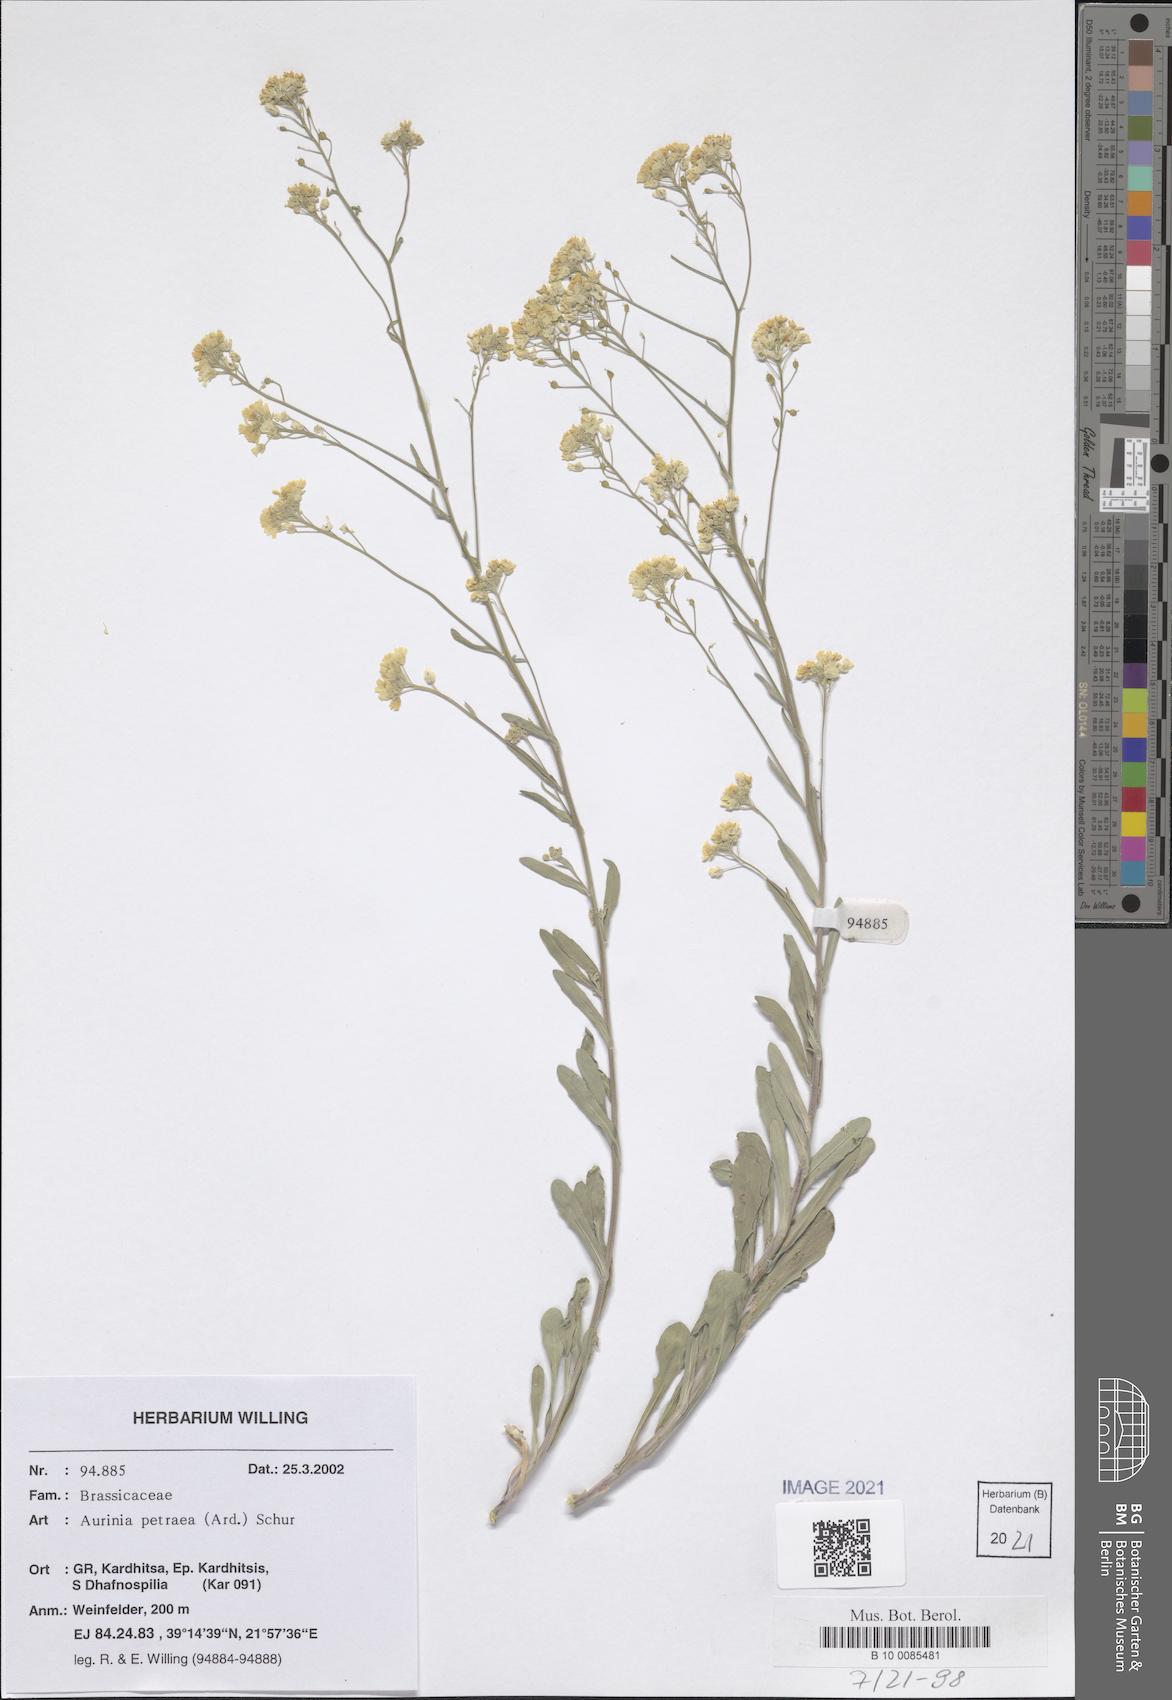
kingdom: Plantae
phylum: Tracheophyta
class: Magnoliopsida
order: Brassicales
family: Brassicaceae
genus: Aurinia
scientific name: Aurinia petraea
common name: Goldentuft
